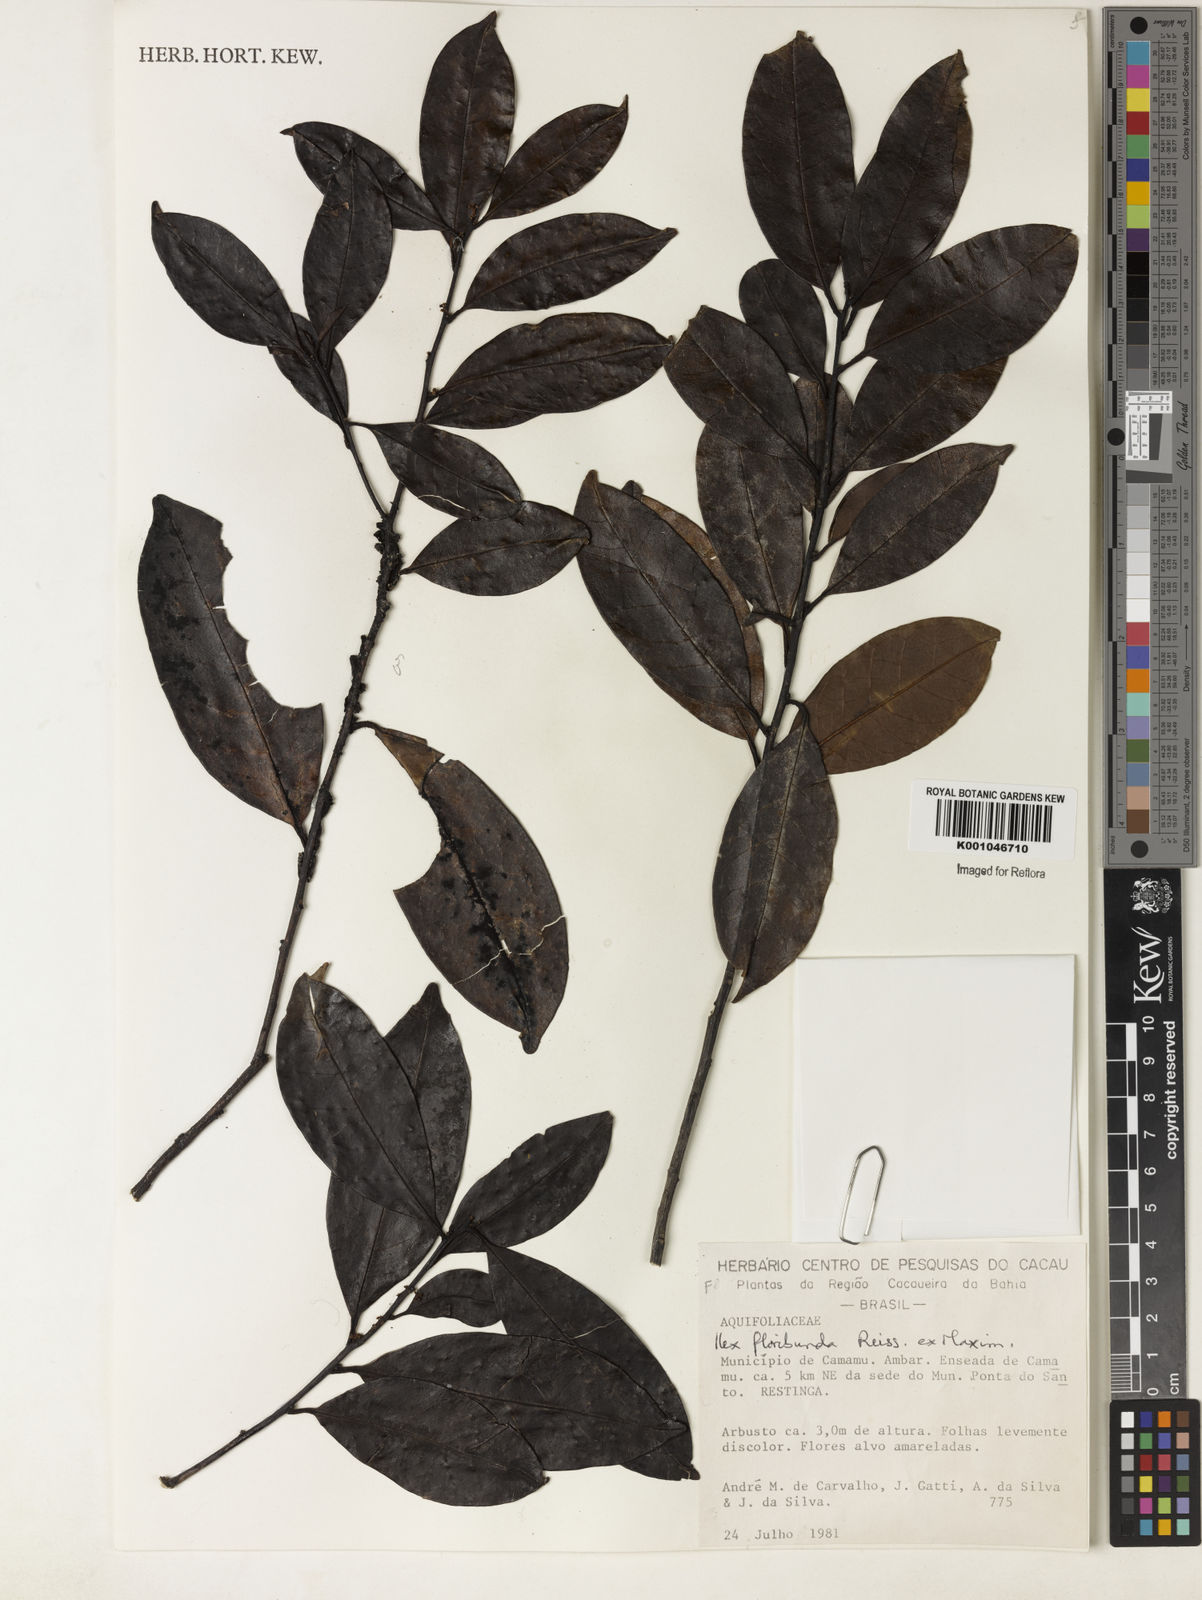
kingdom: Plantae
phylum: Tracheophyta
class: Magnoliopsida
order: Aquifoliales
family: Aquifoliaceae
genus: Ilex
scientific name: Ilex floribunda
